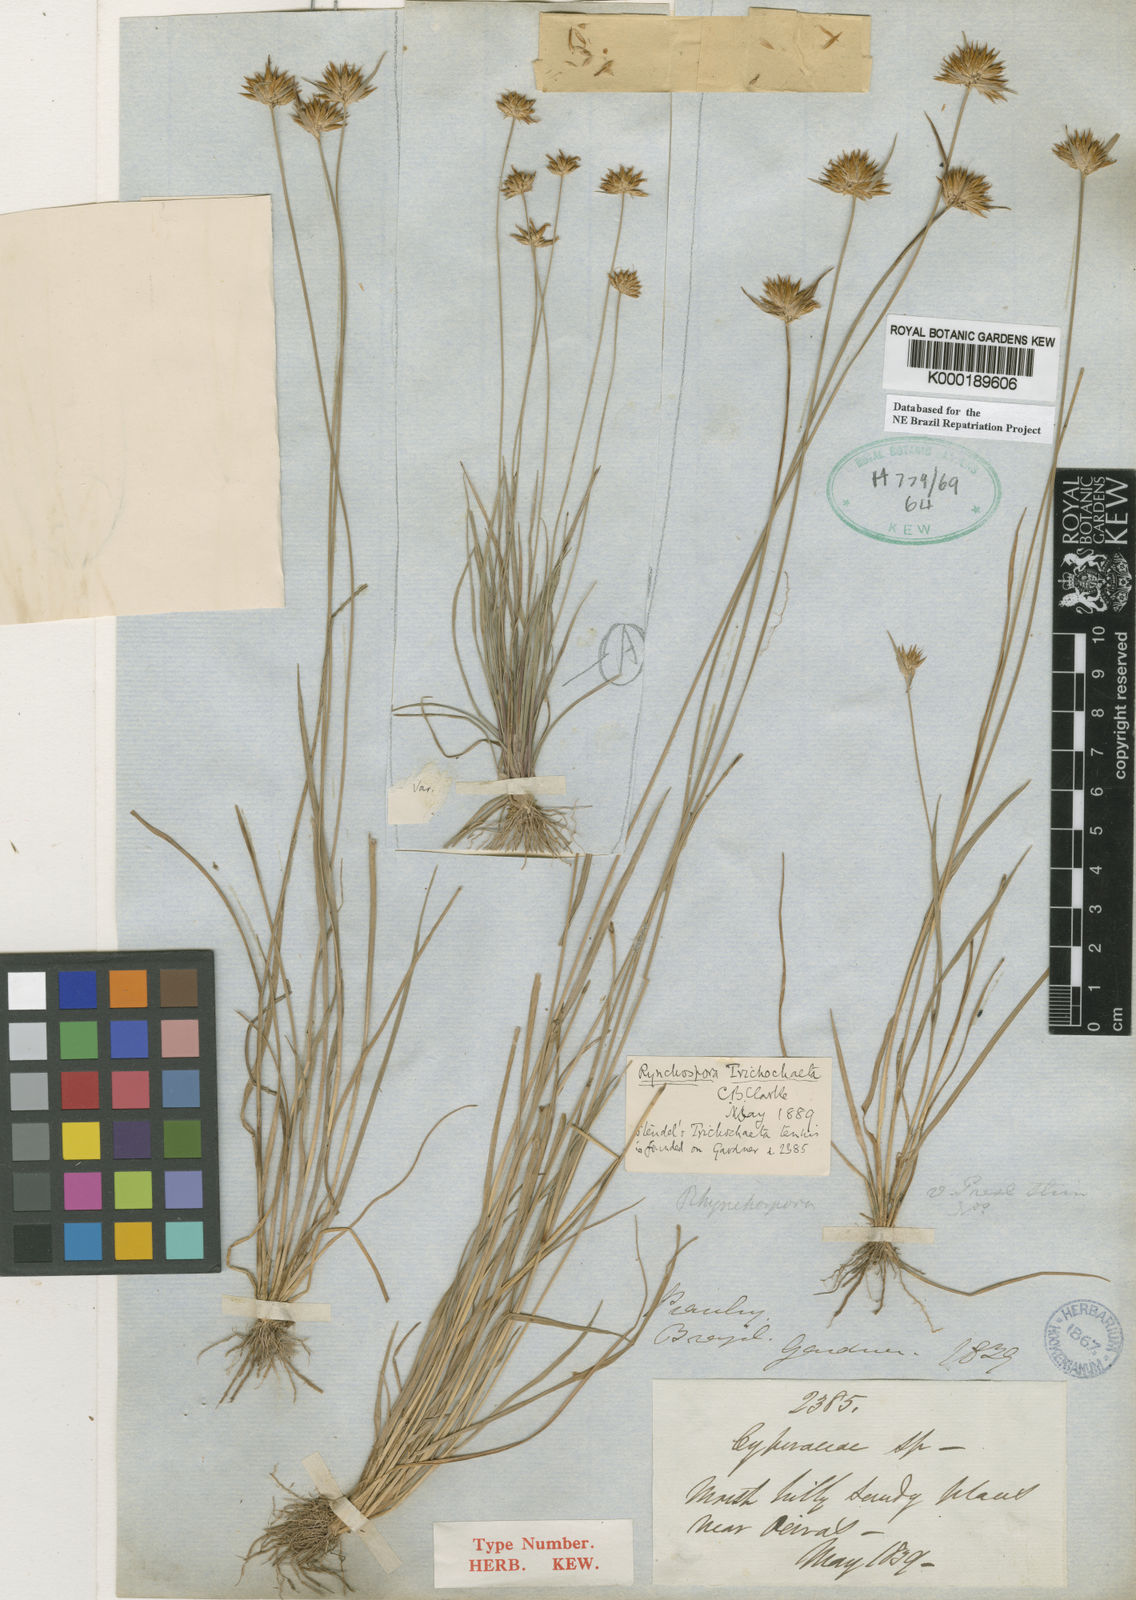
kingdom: Plantae
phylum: Tracheophyta
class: Liliopsida
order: Poales
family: Cyperaceae
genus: Rhynchospora
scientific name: Rhynchospora wightiana
